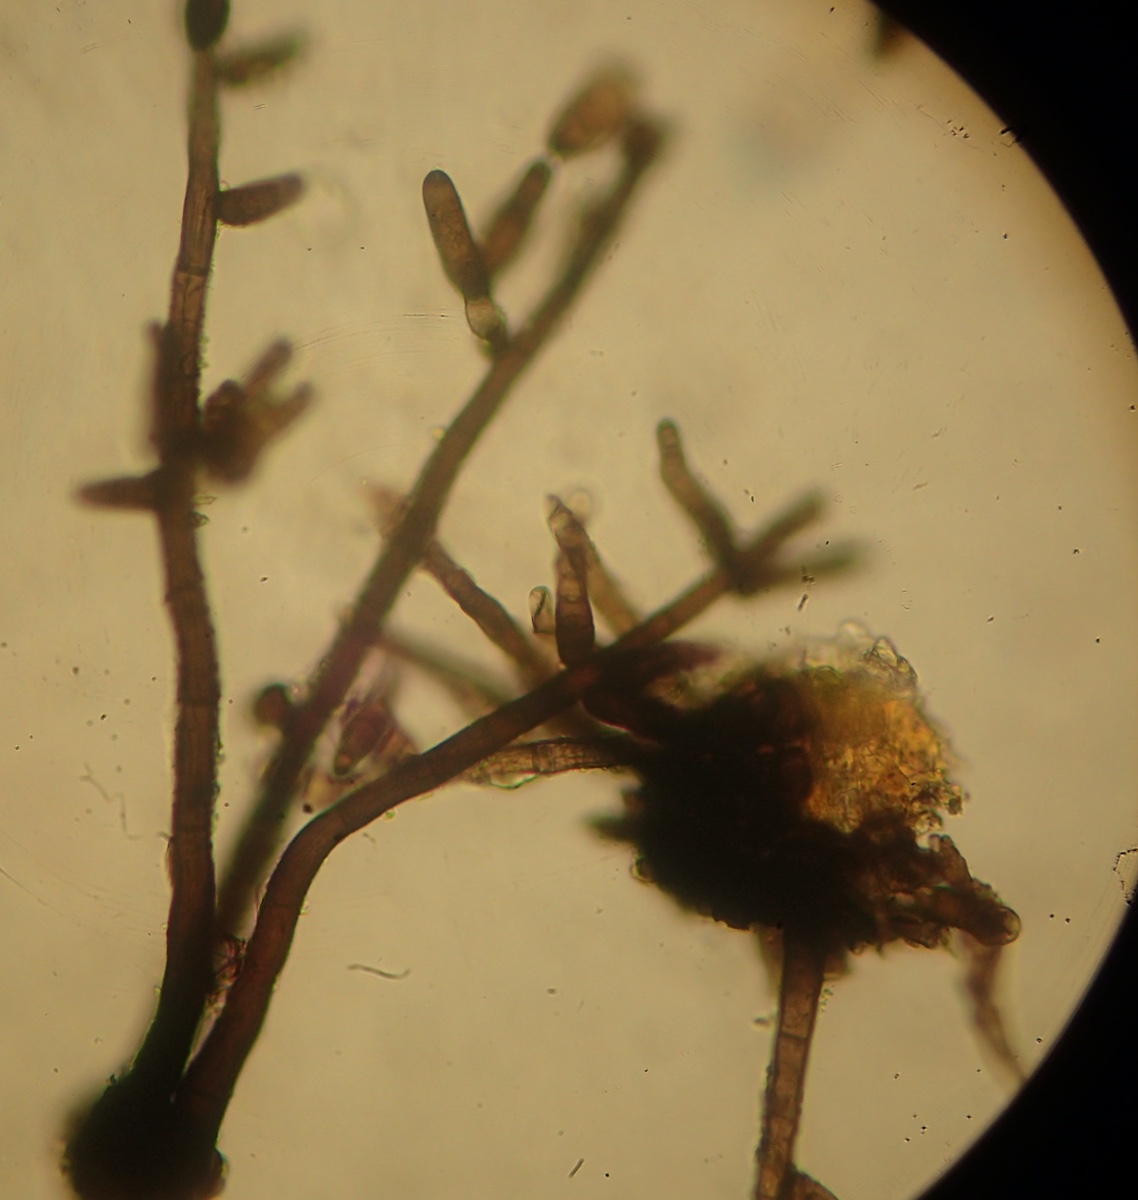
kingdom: Fungi
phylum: Ascomycota
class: Dothideomycetes
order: Pleosporales
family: Massarinaceae
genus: Helminthosporium
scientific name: Helminthosporium velutinum
